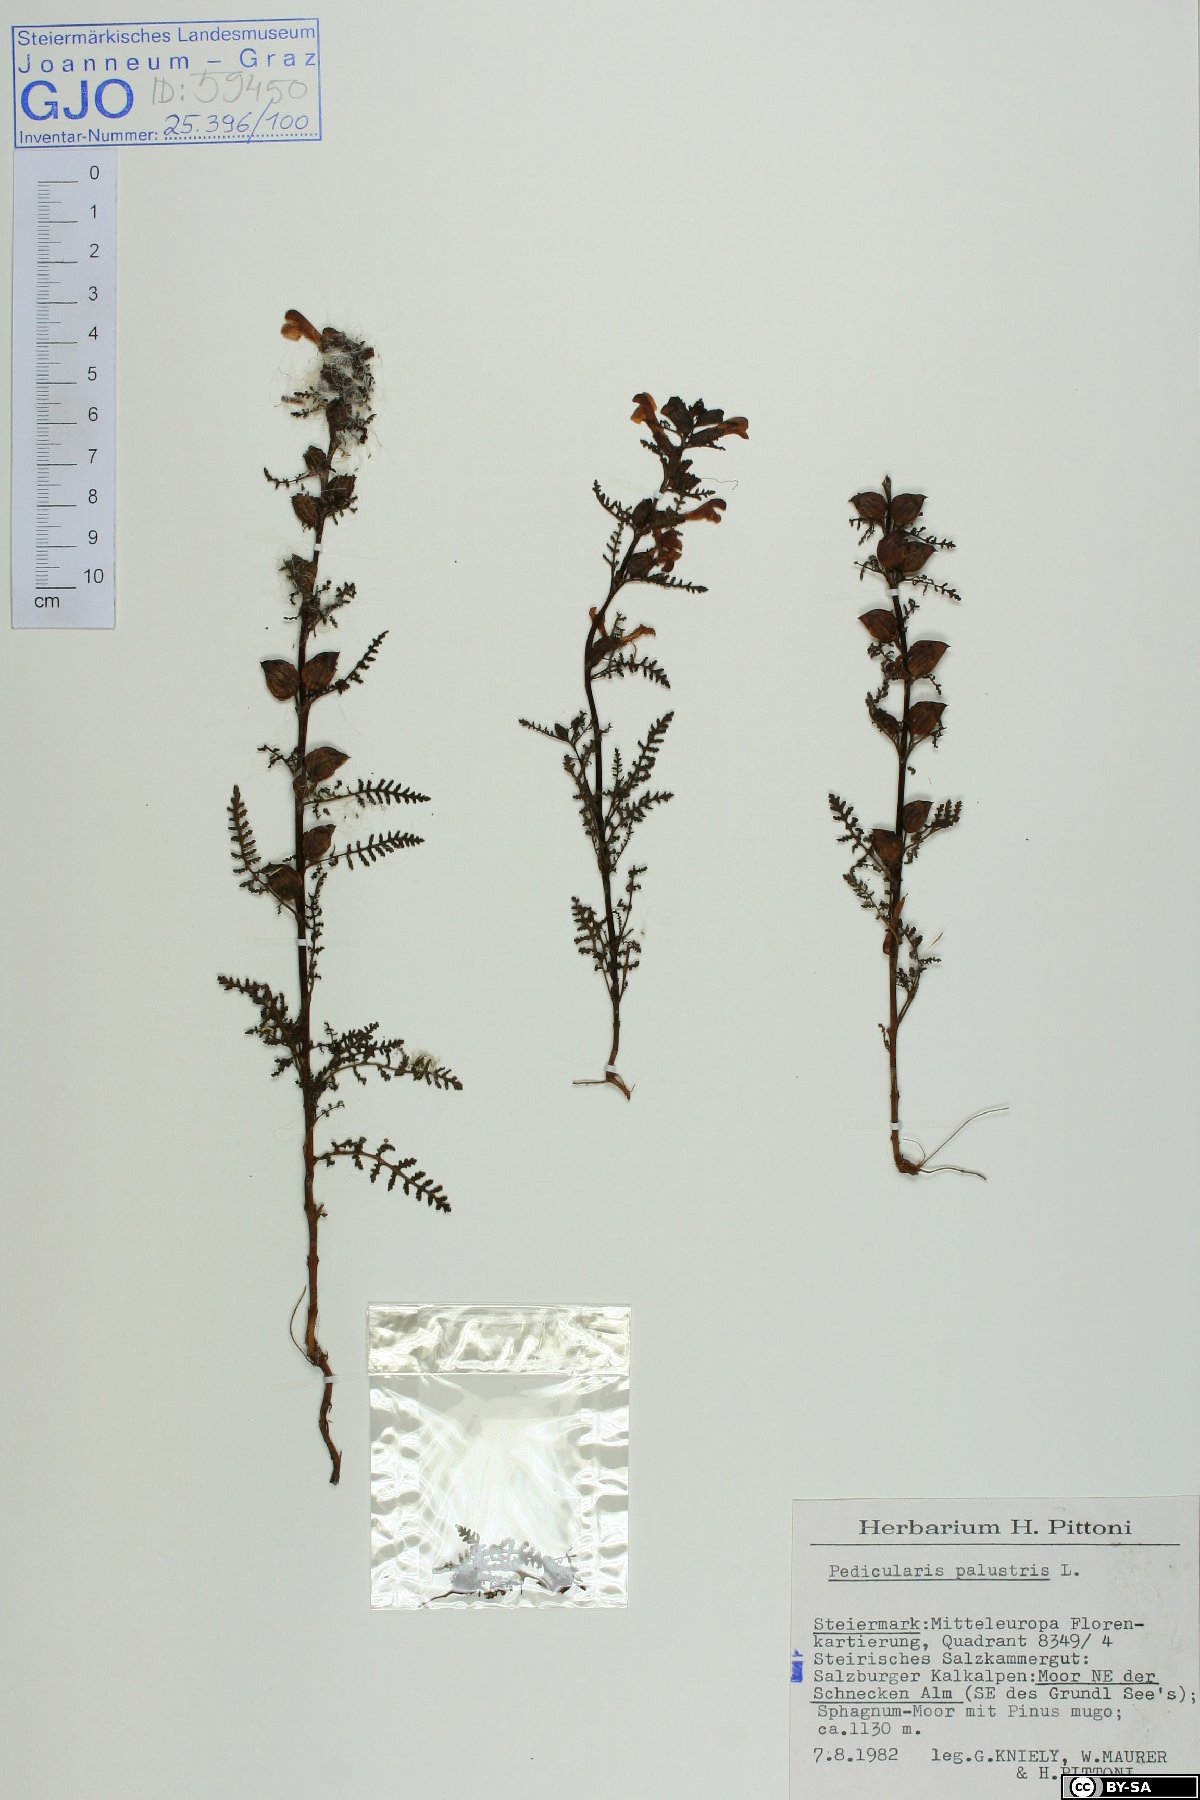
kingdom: Plantae
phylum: Tracheophyta
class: Magnoliopsida
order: Lamiales
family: Orobanchaceae
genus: Pedicularis
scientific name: Pedicularis palustris
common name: Marsh lousewort
